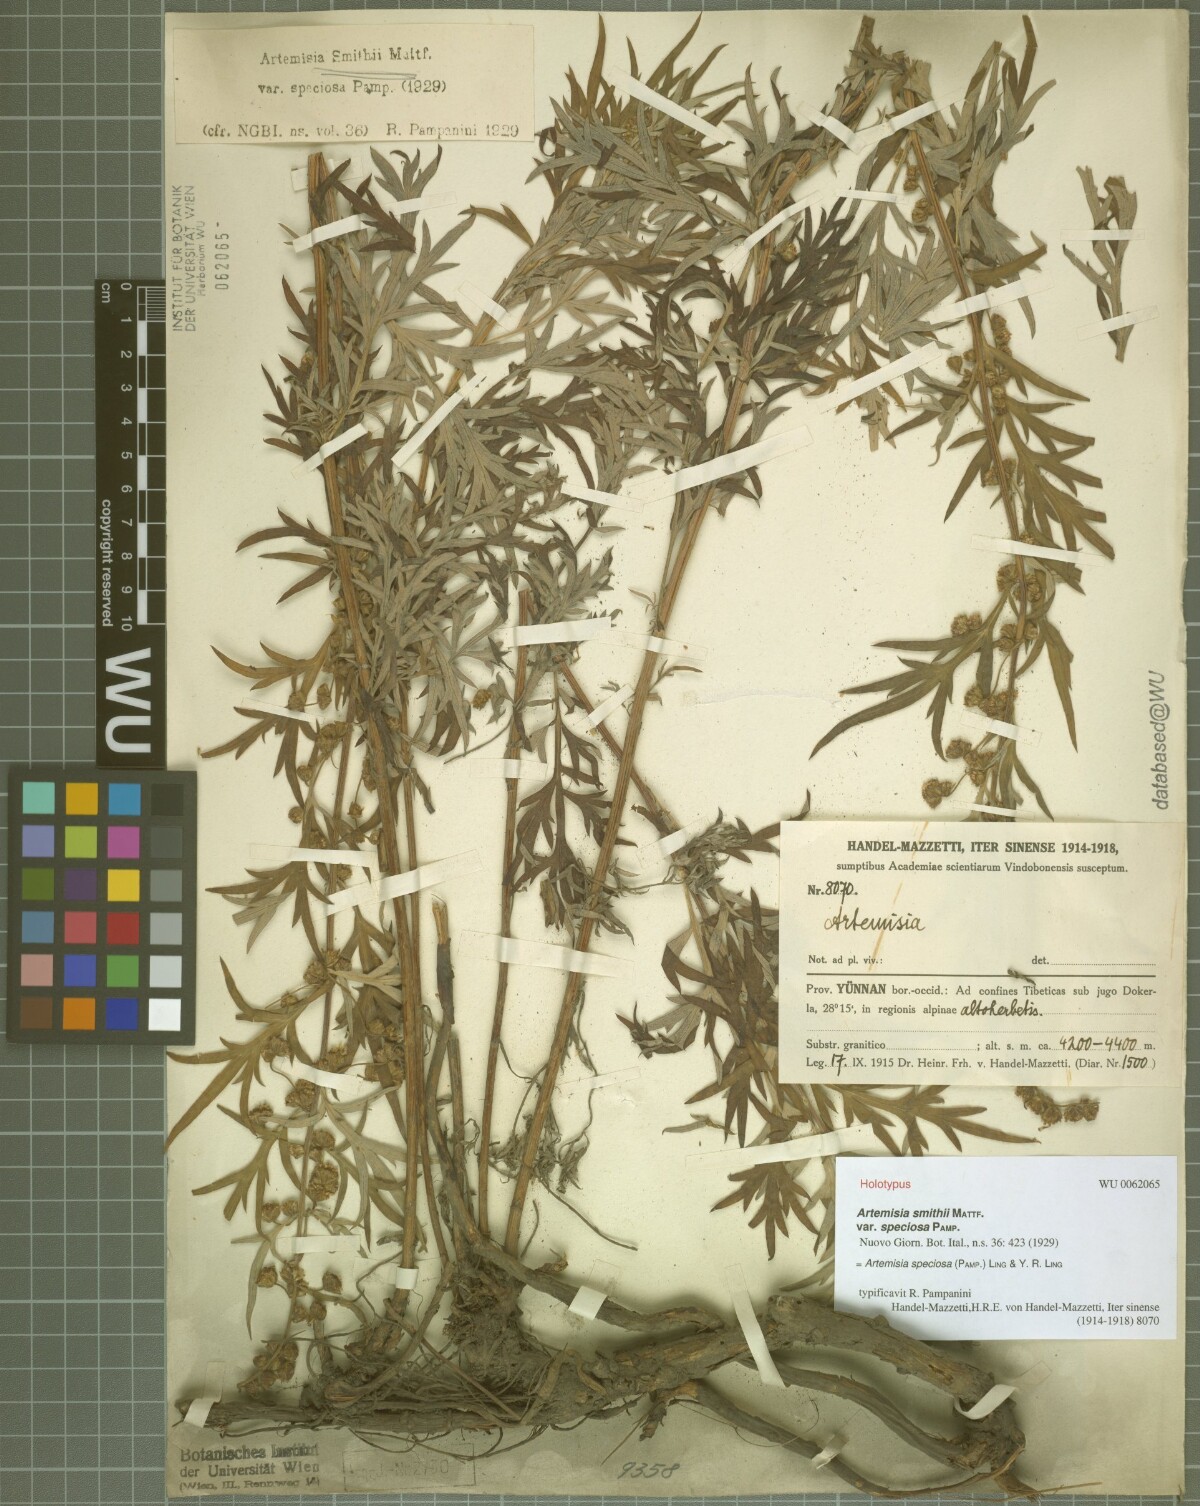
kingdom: Plantae
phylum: Tracheophyta
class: Magnoliopsida
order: Asterales
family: Asteraceae
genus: Artemisia
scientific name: Artemisia speciosa
